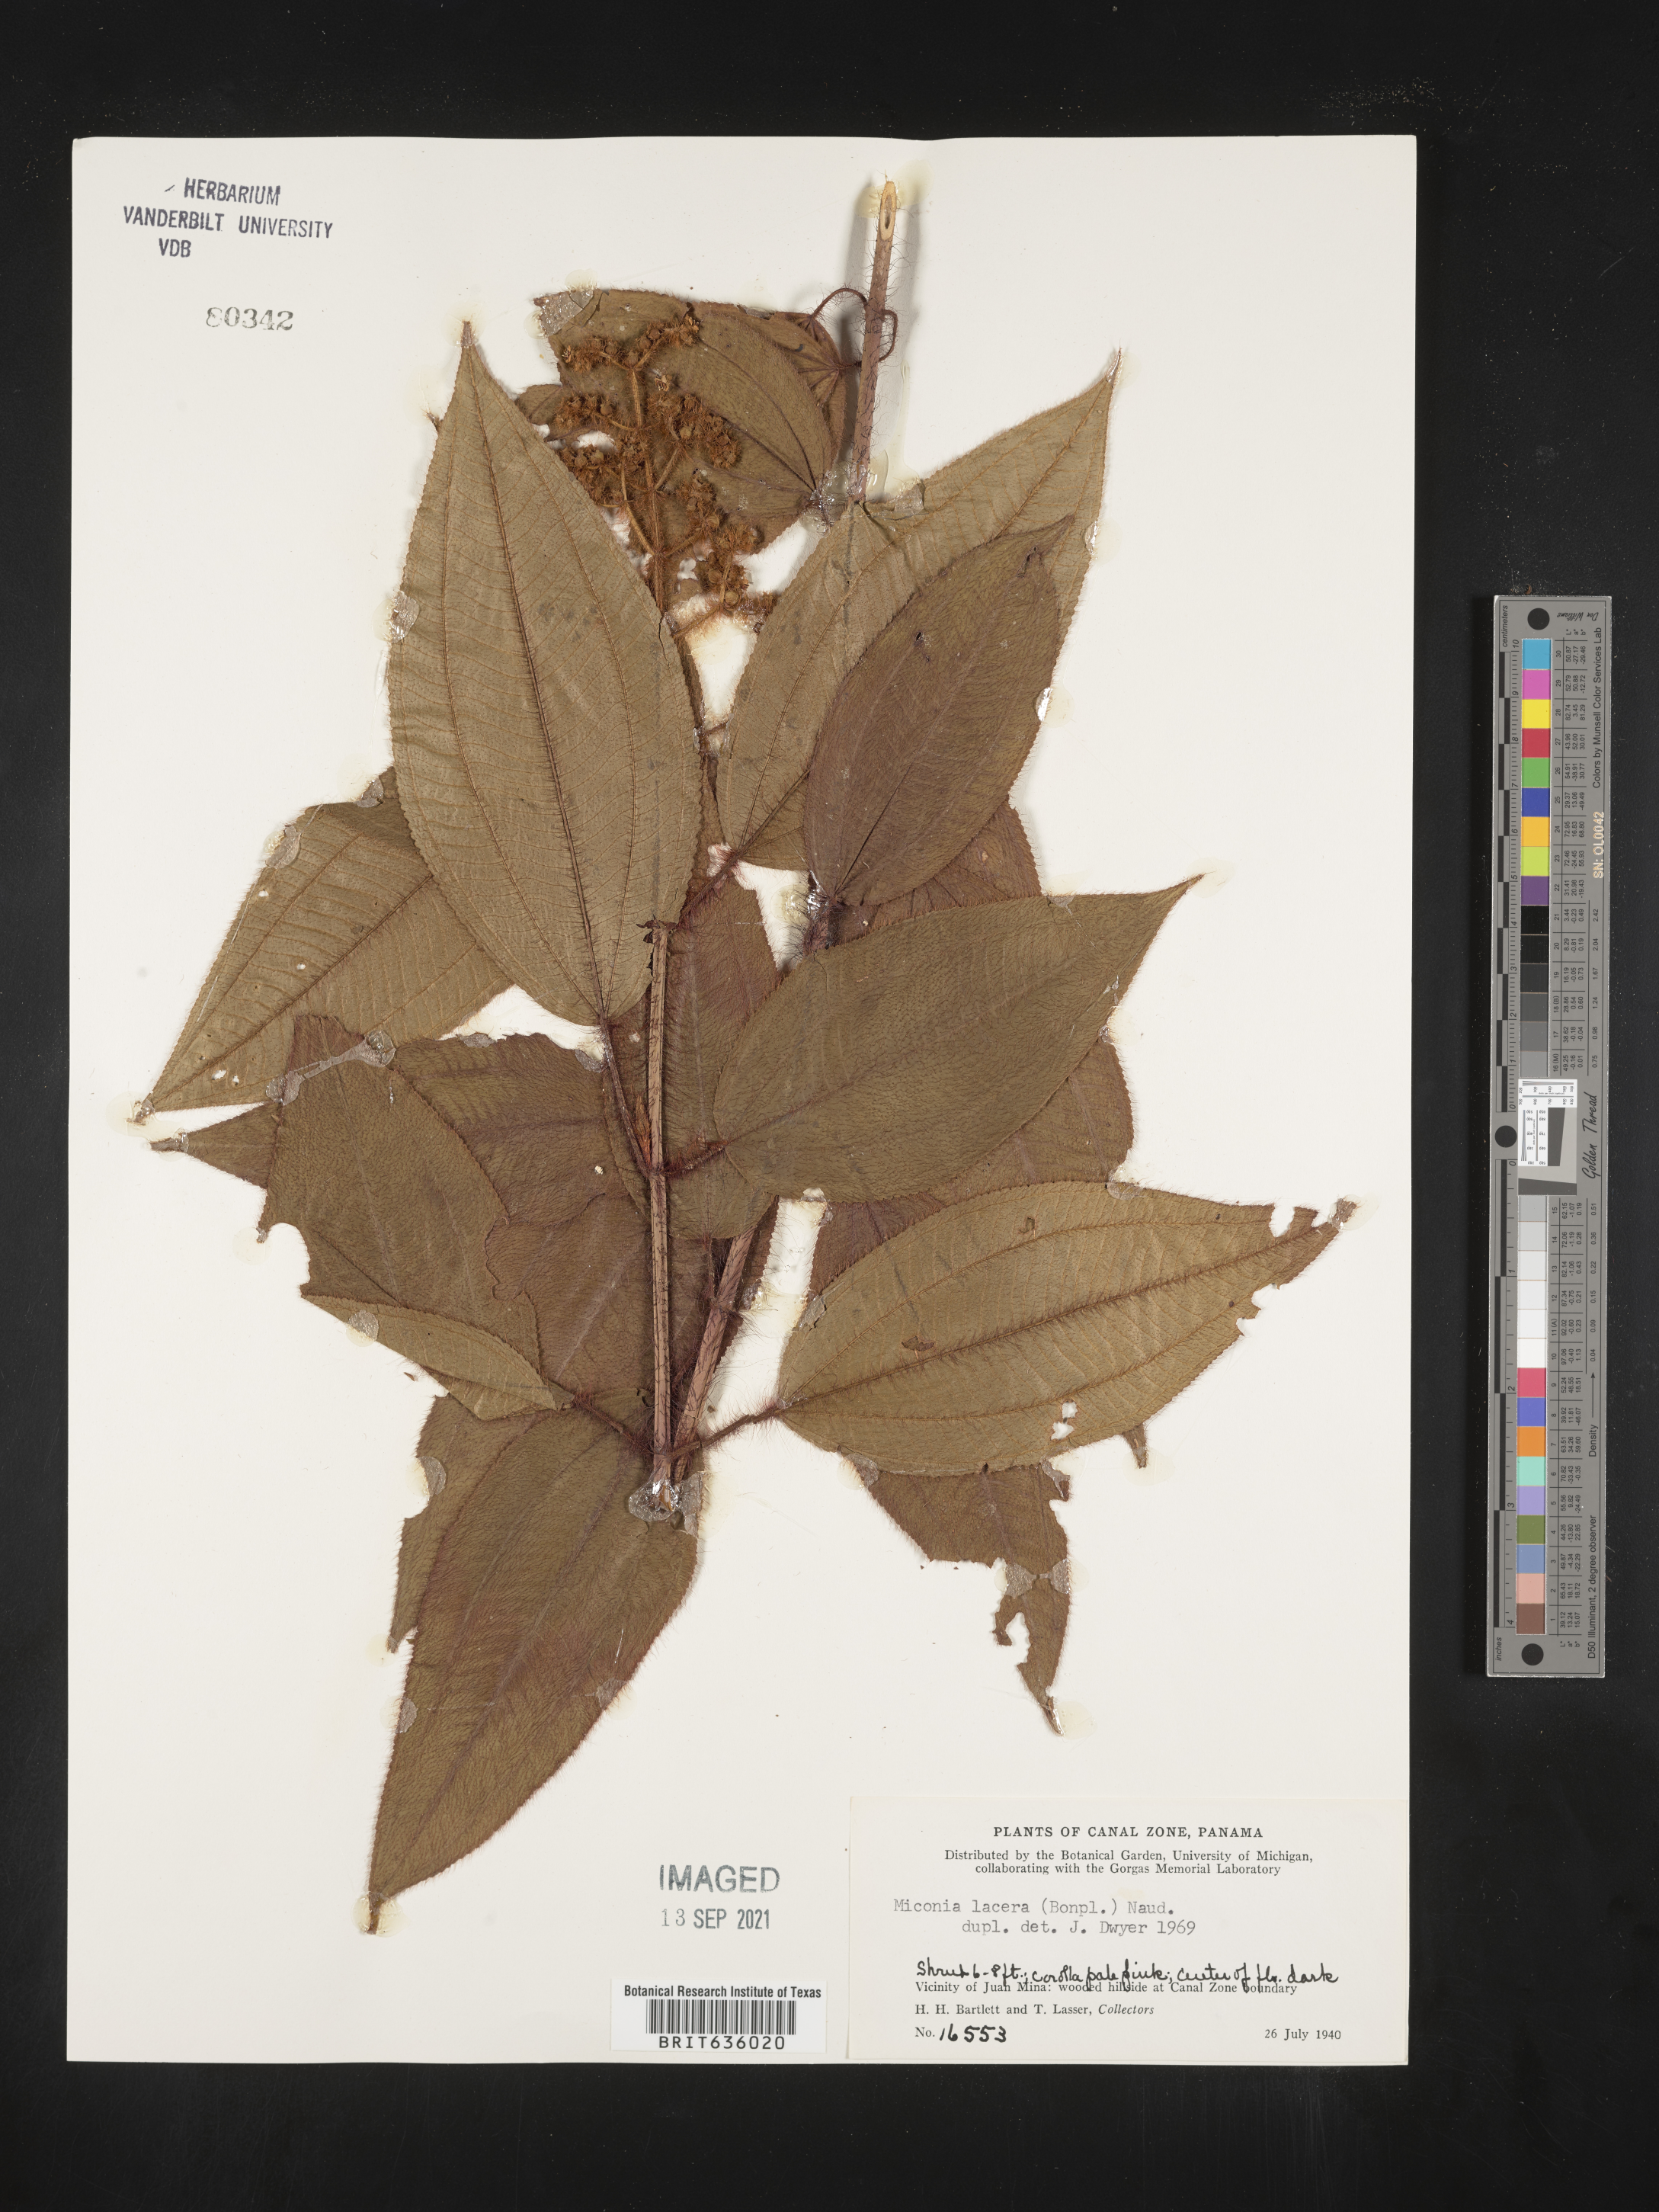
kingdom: Plantae
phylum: Tracheophyta
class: Magnoliopsida
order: Myrtales
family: Melastomataceae
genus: Miconia
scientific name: Miconia
